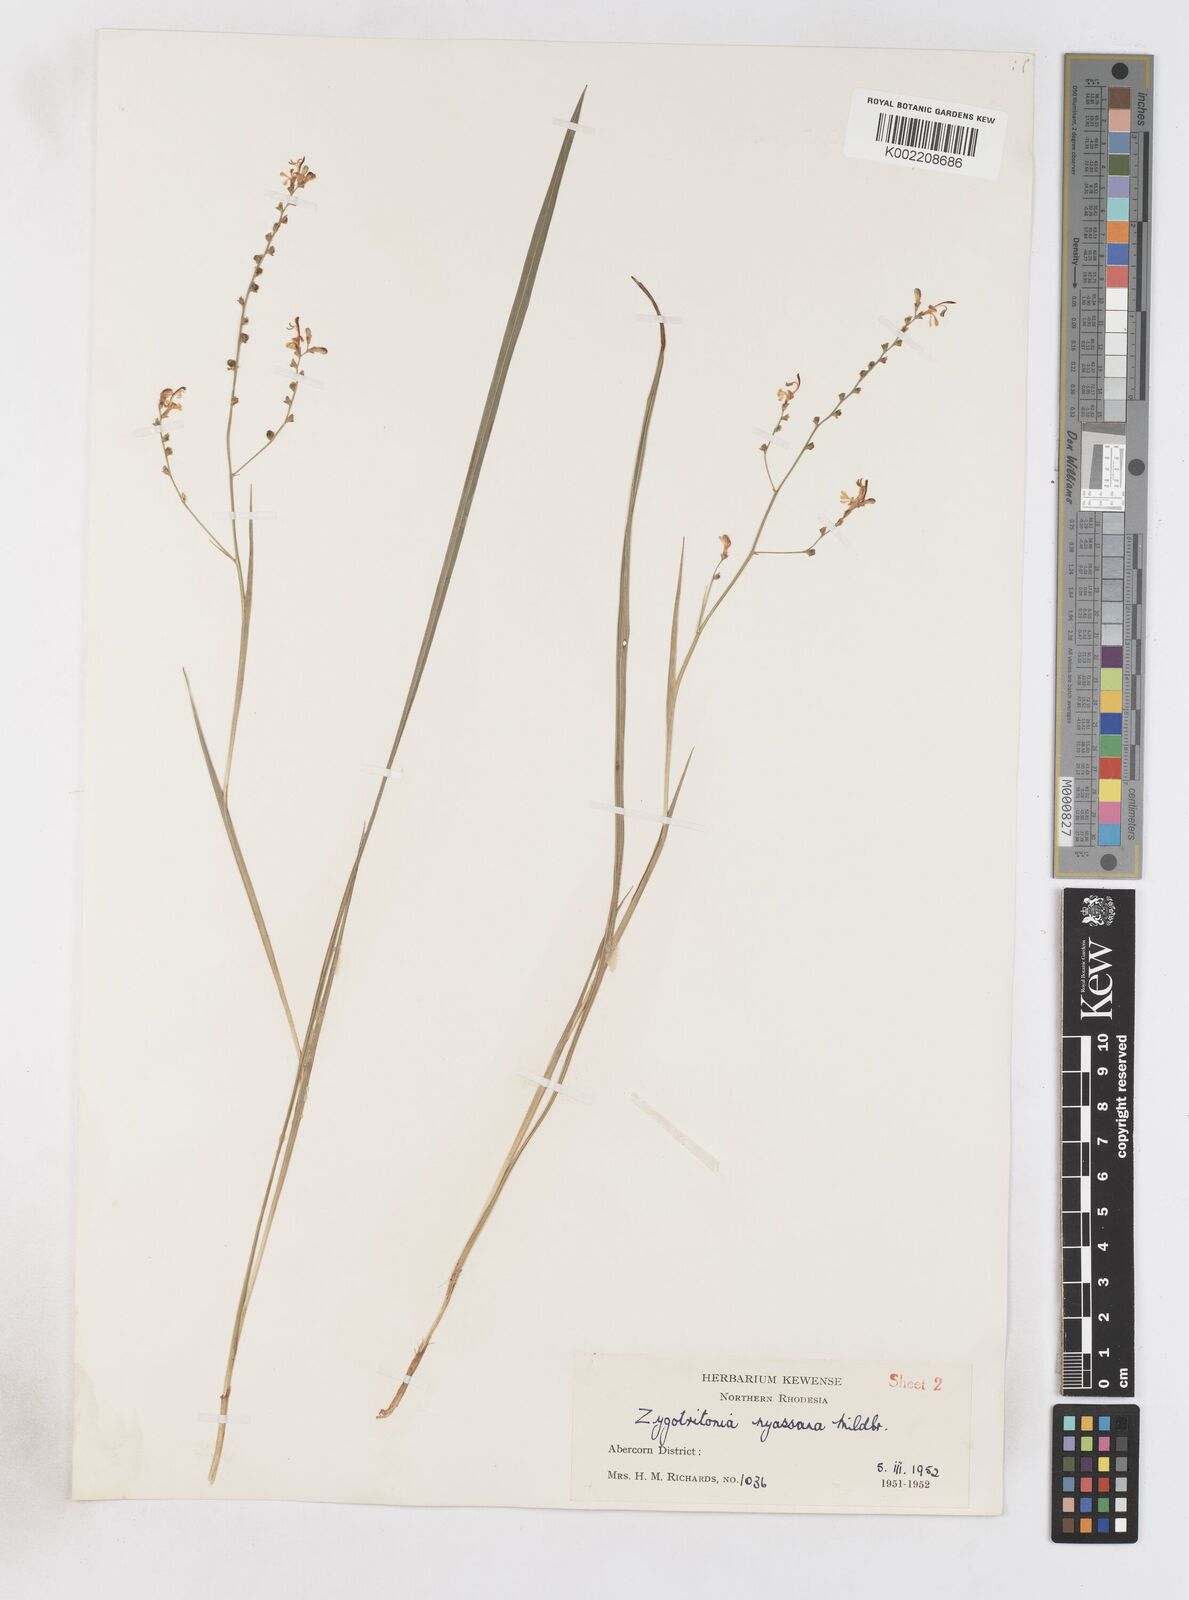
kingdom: Plantae
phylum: Tracheophyta
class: Liliopsida
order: Asparagales
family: Iridaceae
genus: Zygotritonia
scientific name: Zygotritonia nyassana
